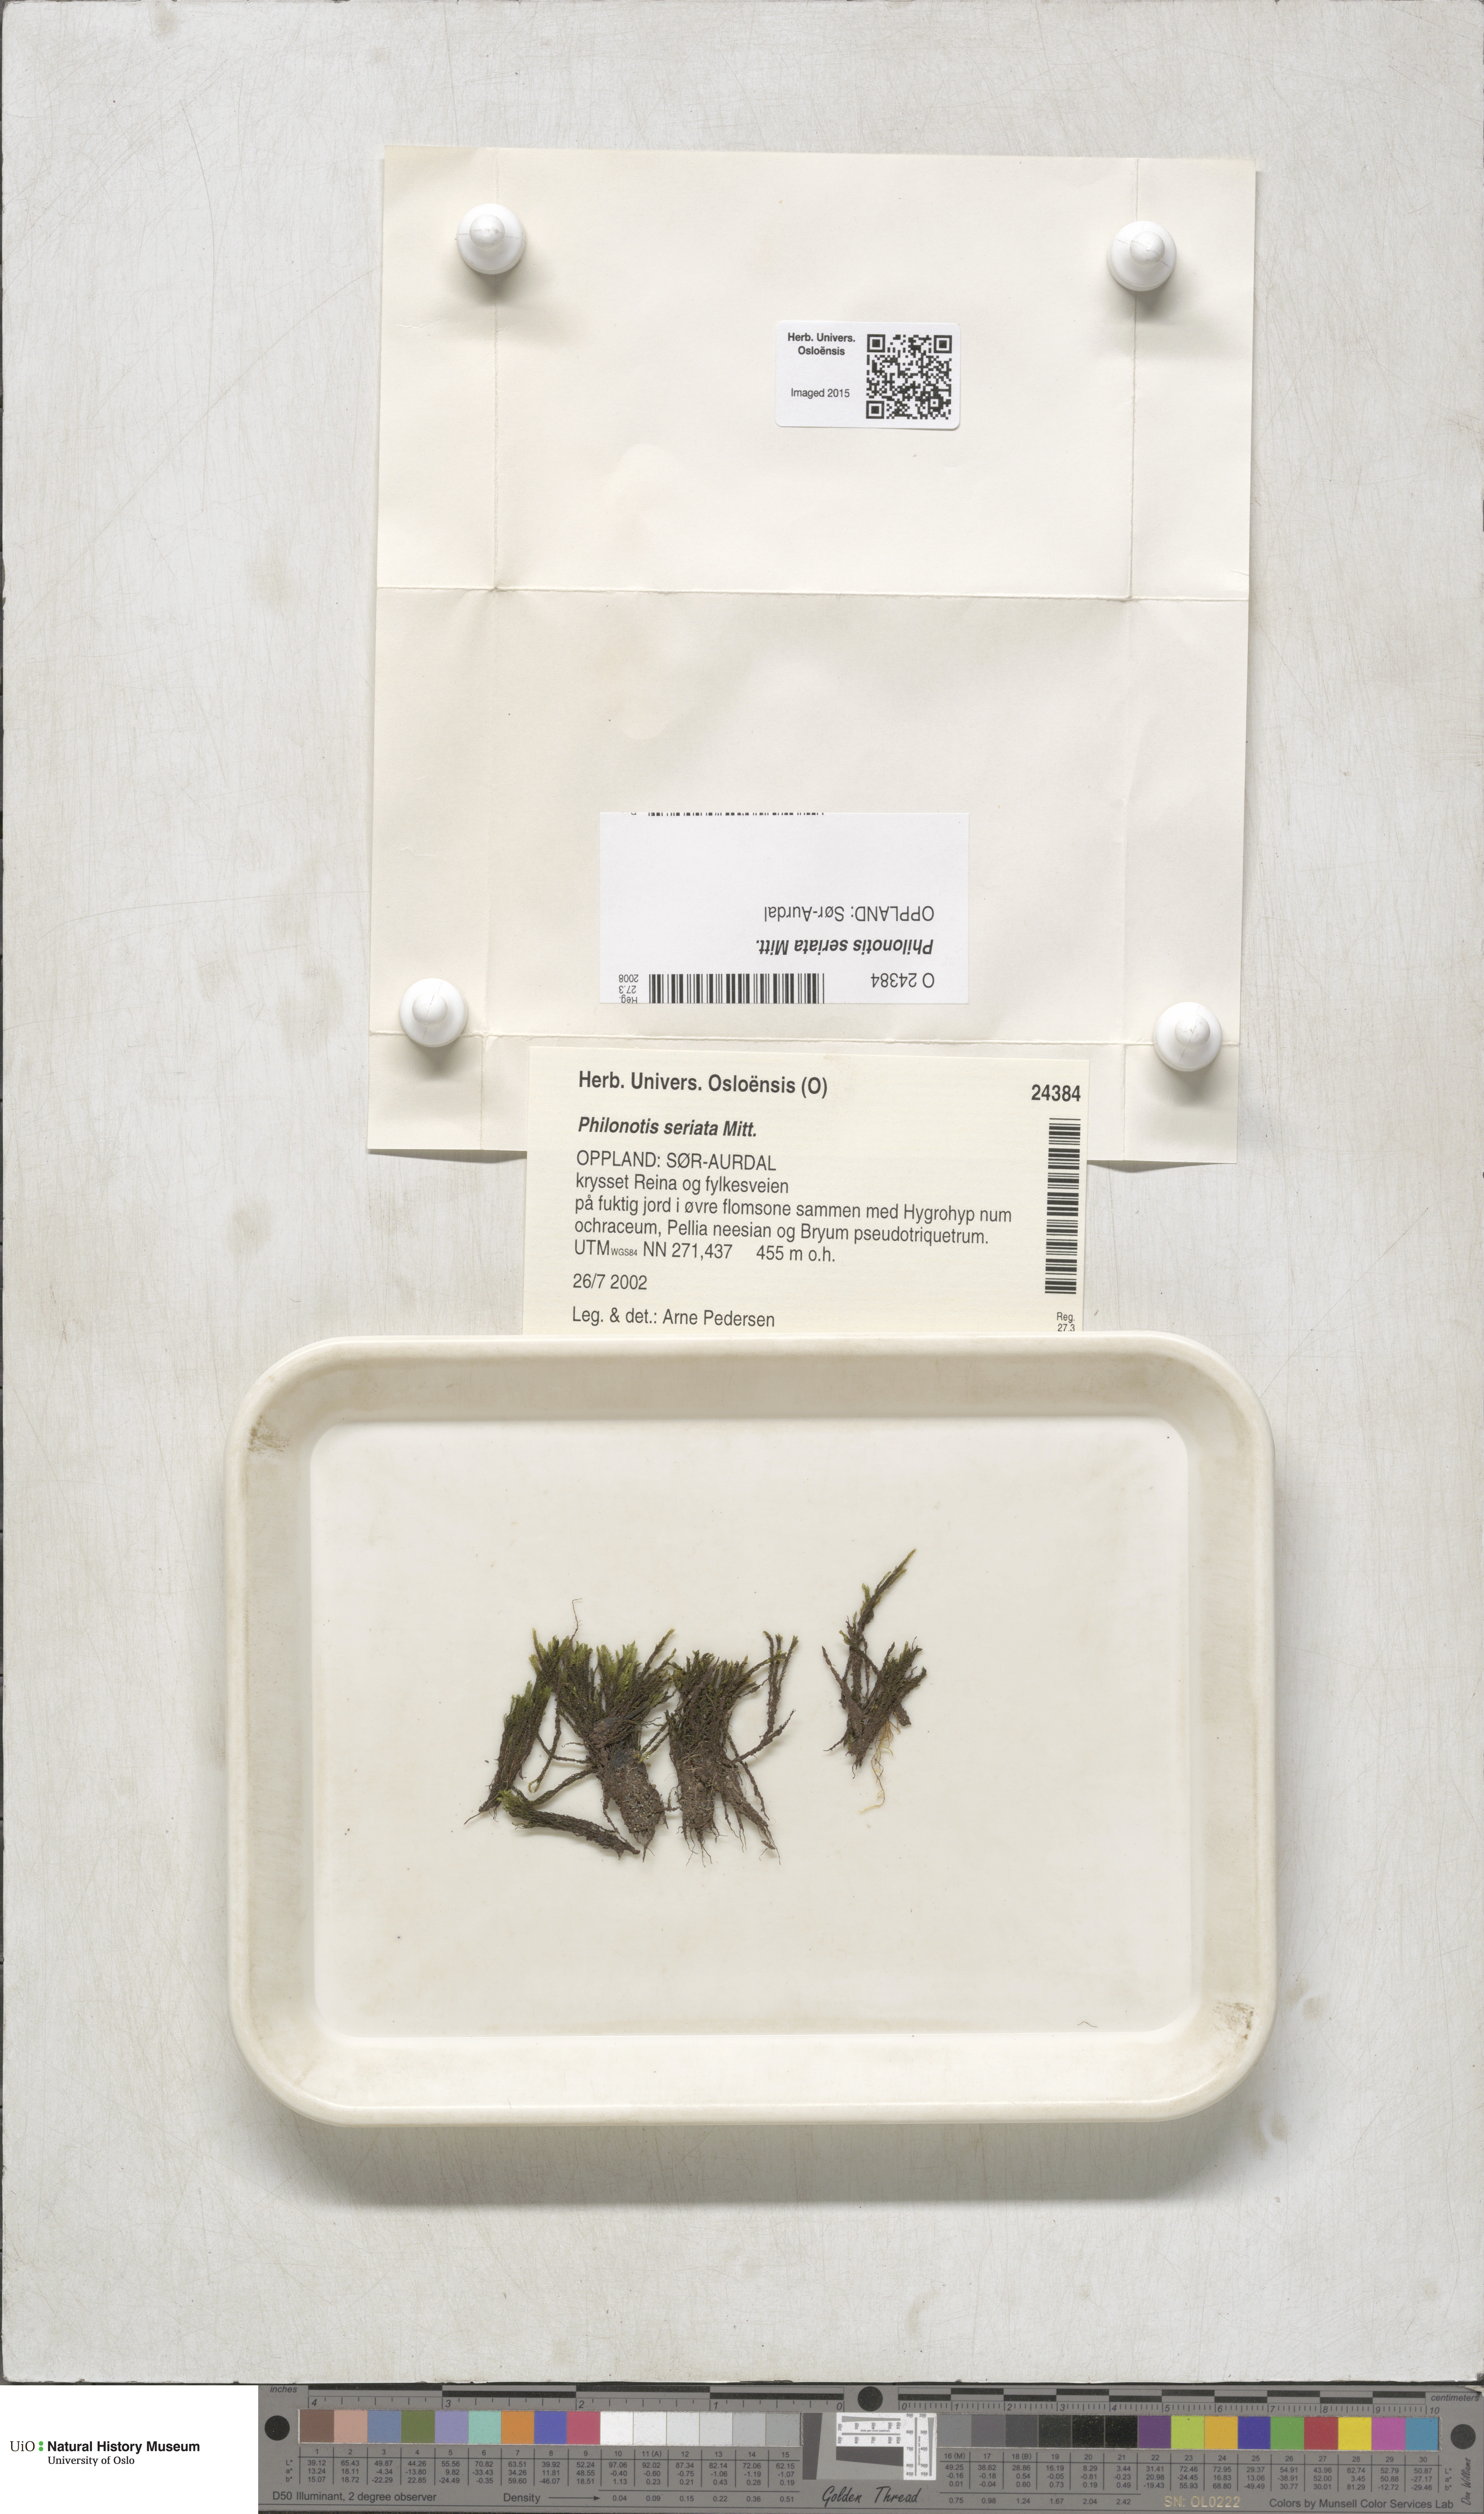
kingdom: Plantae
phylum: Bryophyta
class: Bryopsida
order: Bartramiales
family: Bartramiaceae
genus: Philonotis
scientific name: Philonotis seriata
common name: Spiral apple-moss
